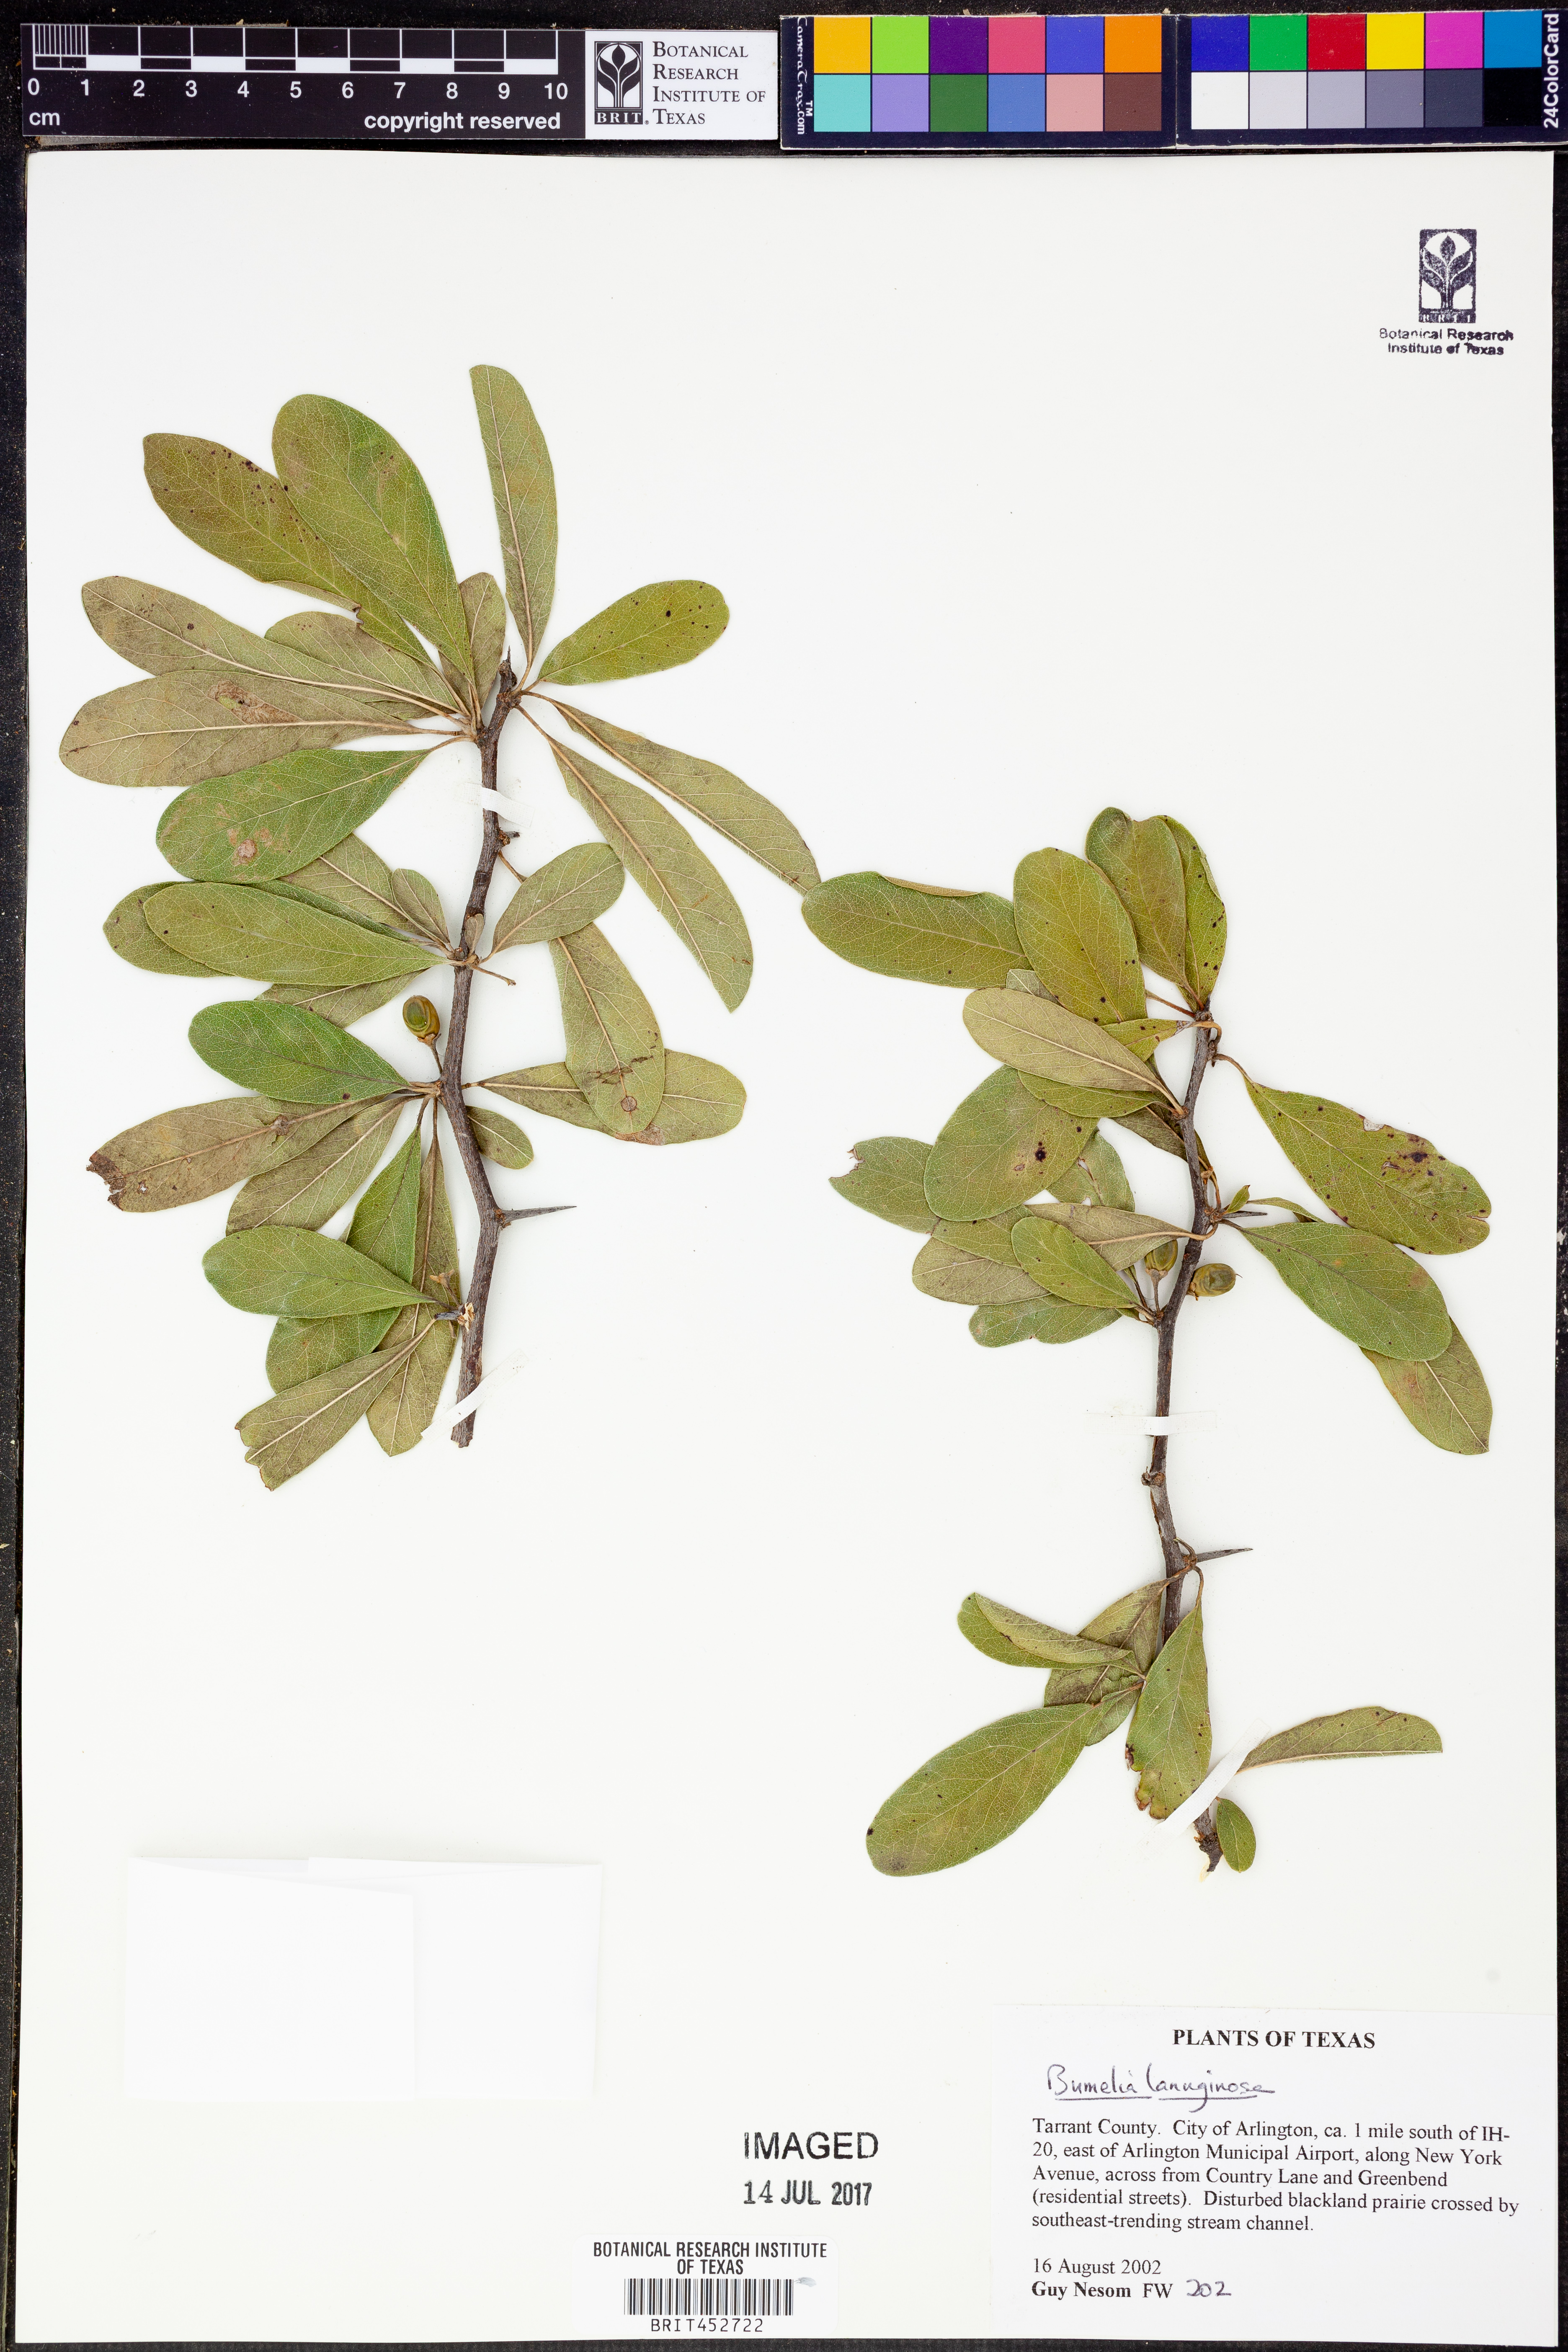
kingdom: Plantae
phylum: Tracheophyta
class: Magnoliopsida
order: Ericales
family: Sapotaceae
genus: Sideroxylon
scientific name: Sideroxylon lanuginosum
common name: Chittamwood
